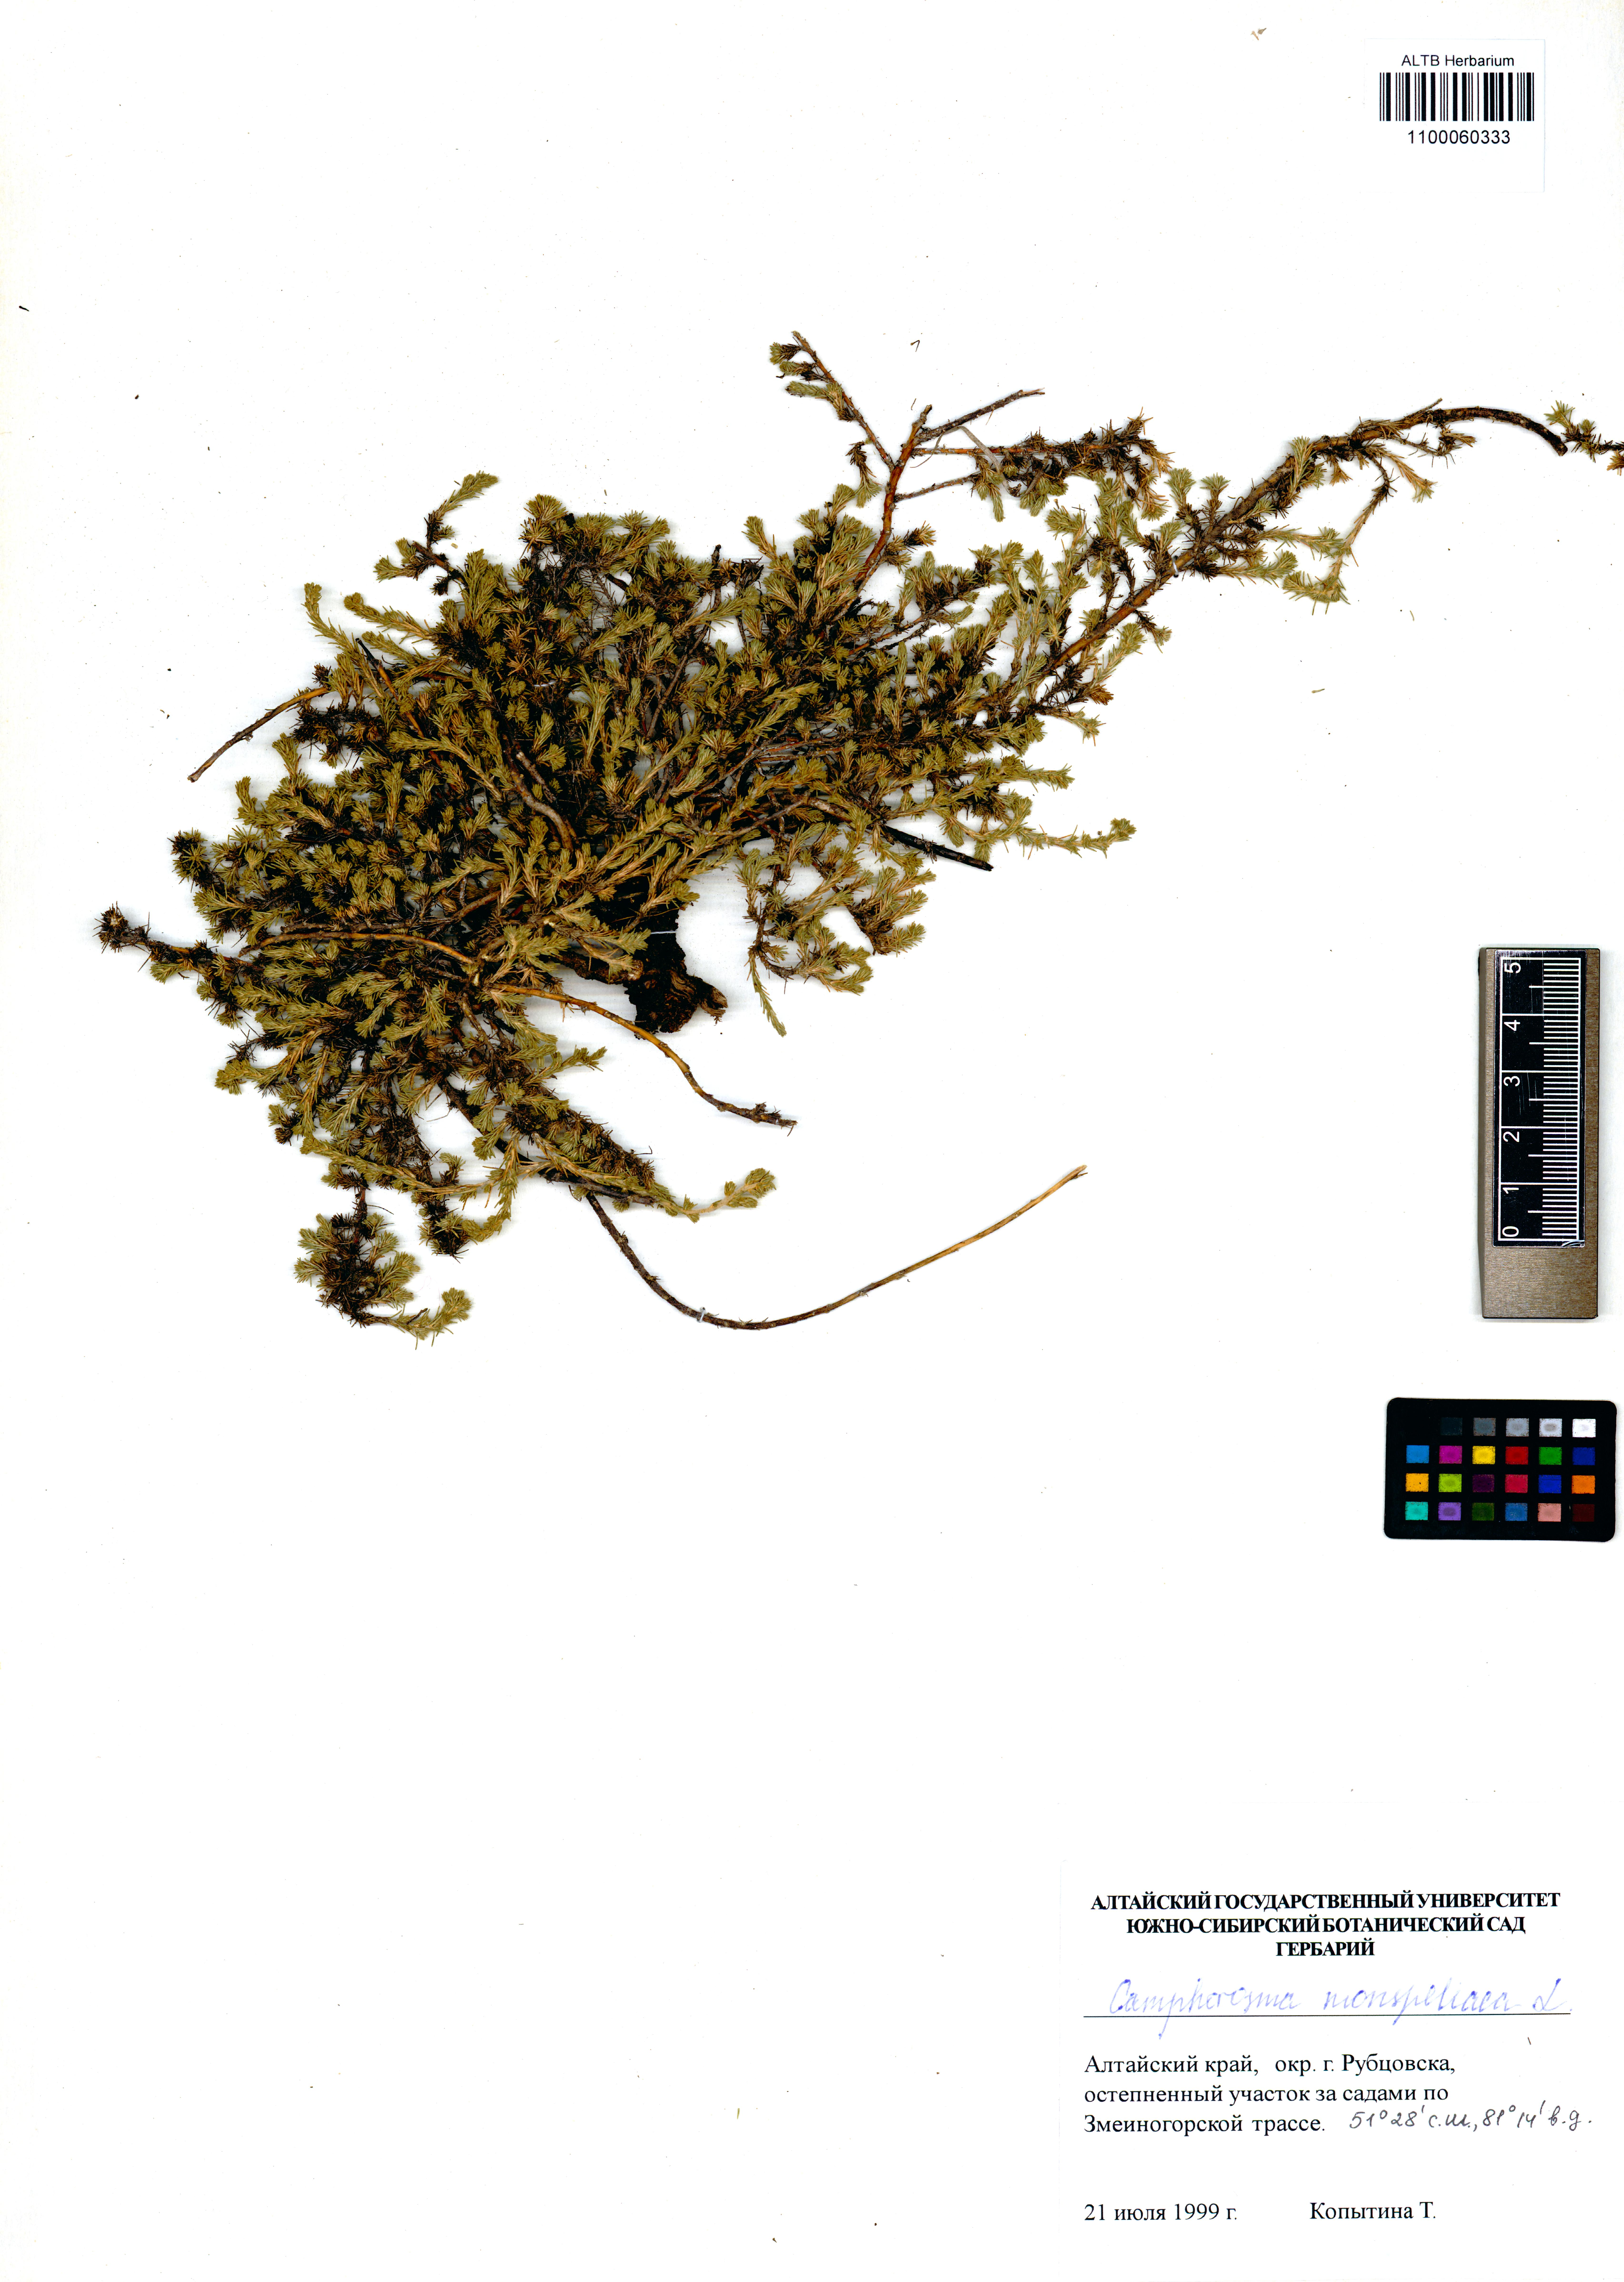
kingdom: Plantae
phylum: Tracheophyta
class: Magnoliopsida
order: Caryophyllales
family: Amaranthaceae
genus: Camphorosma
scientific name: Camphorosma monspeliaca
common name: Camphorfume
